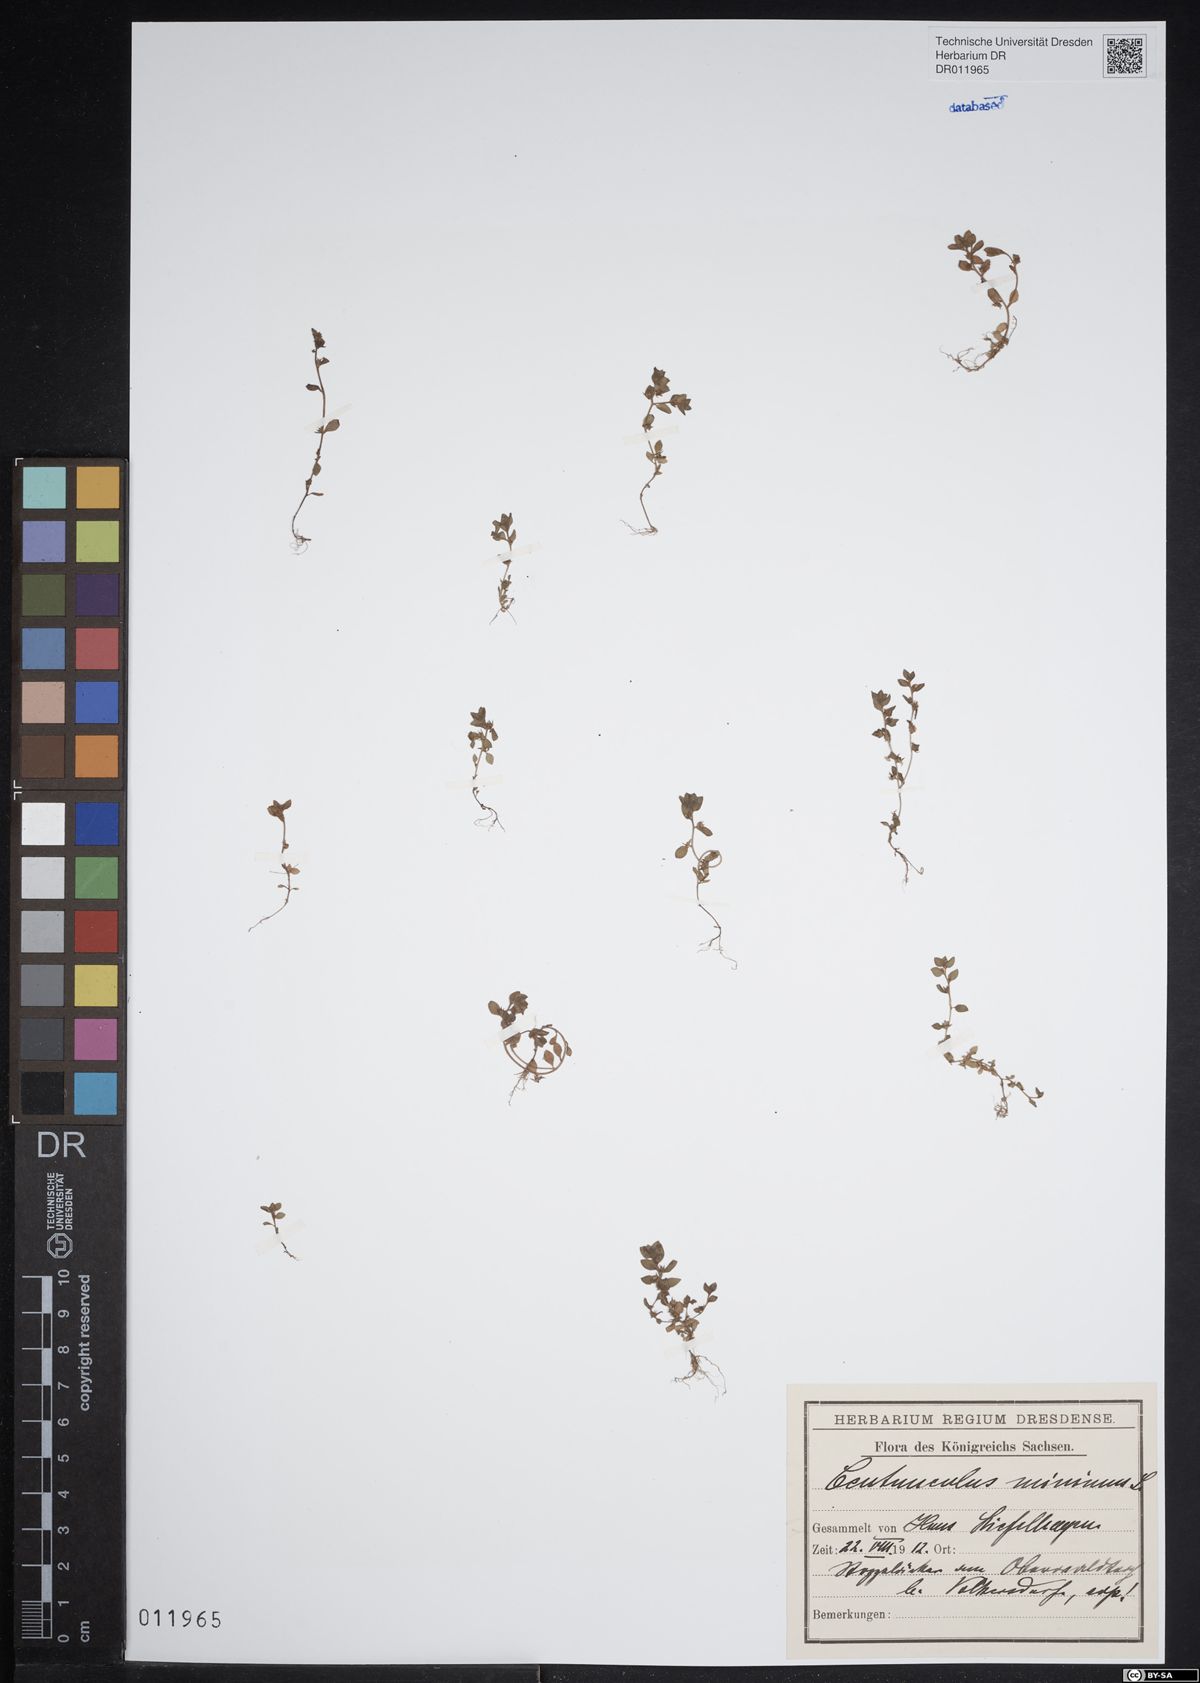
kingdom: Plantae
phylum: Tracheophyta
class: Magnoliopsida
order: Ericales
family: Primulaceae
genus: Lysimachia
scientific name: Lysimachia minima
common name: Chaffweed
